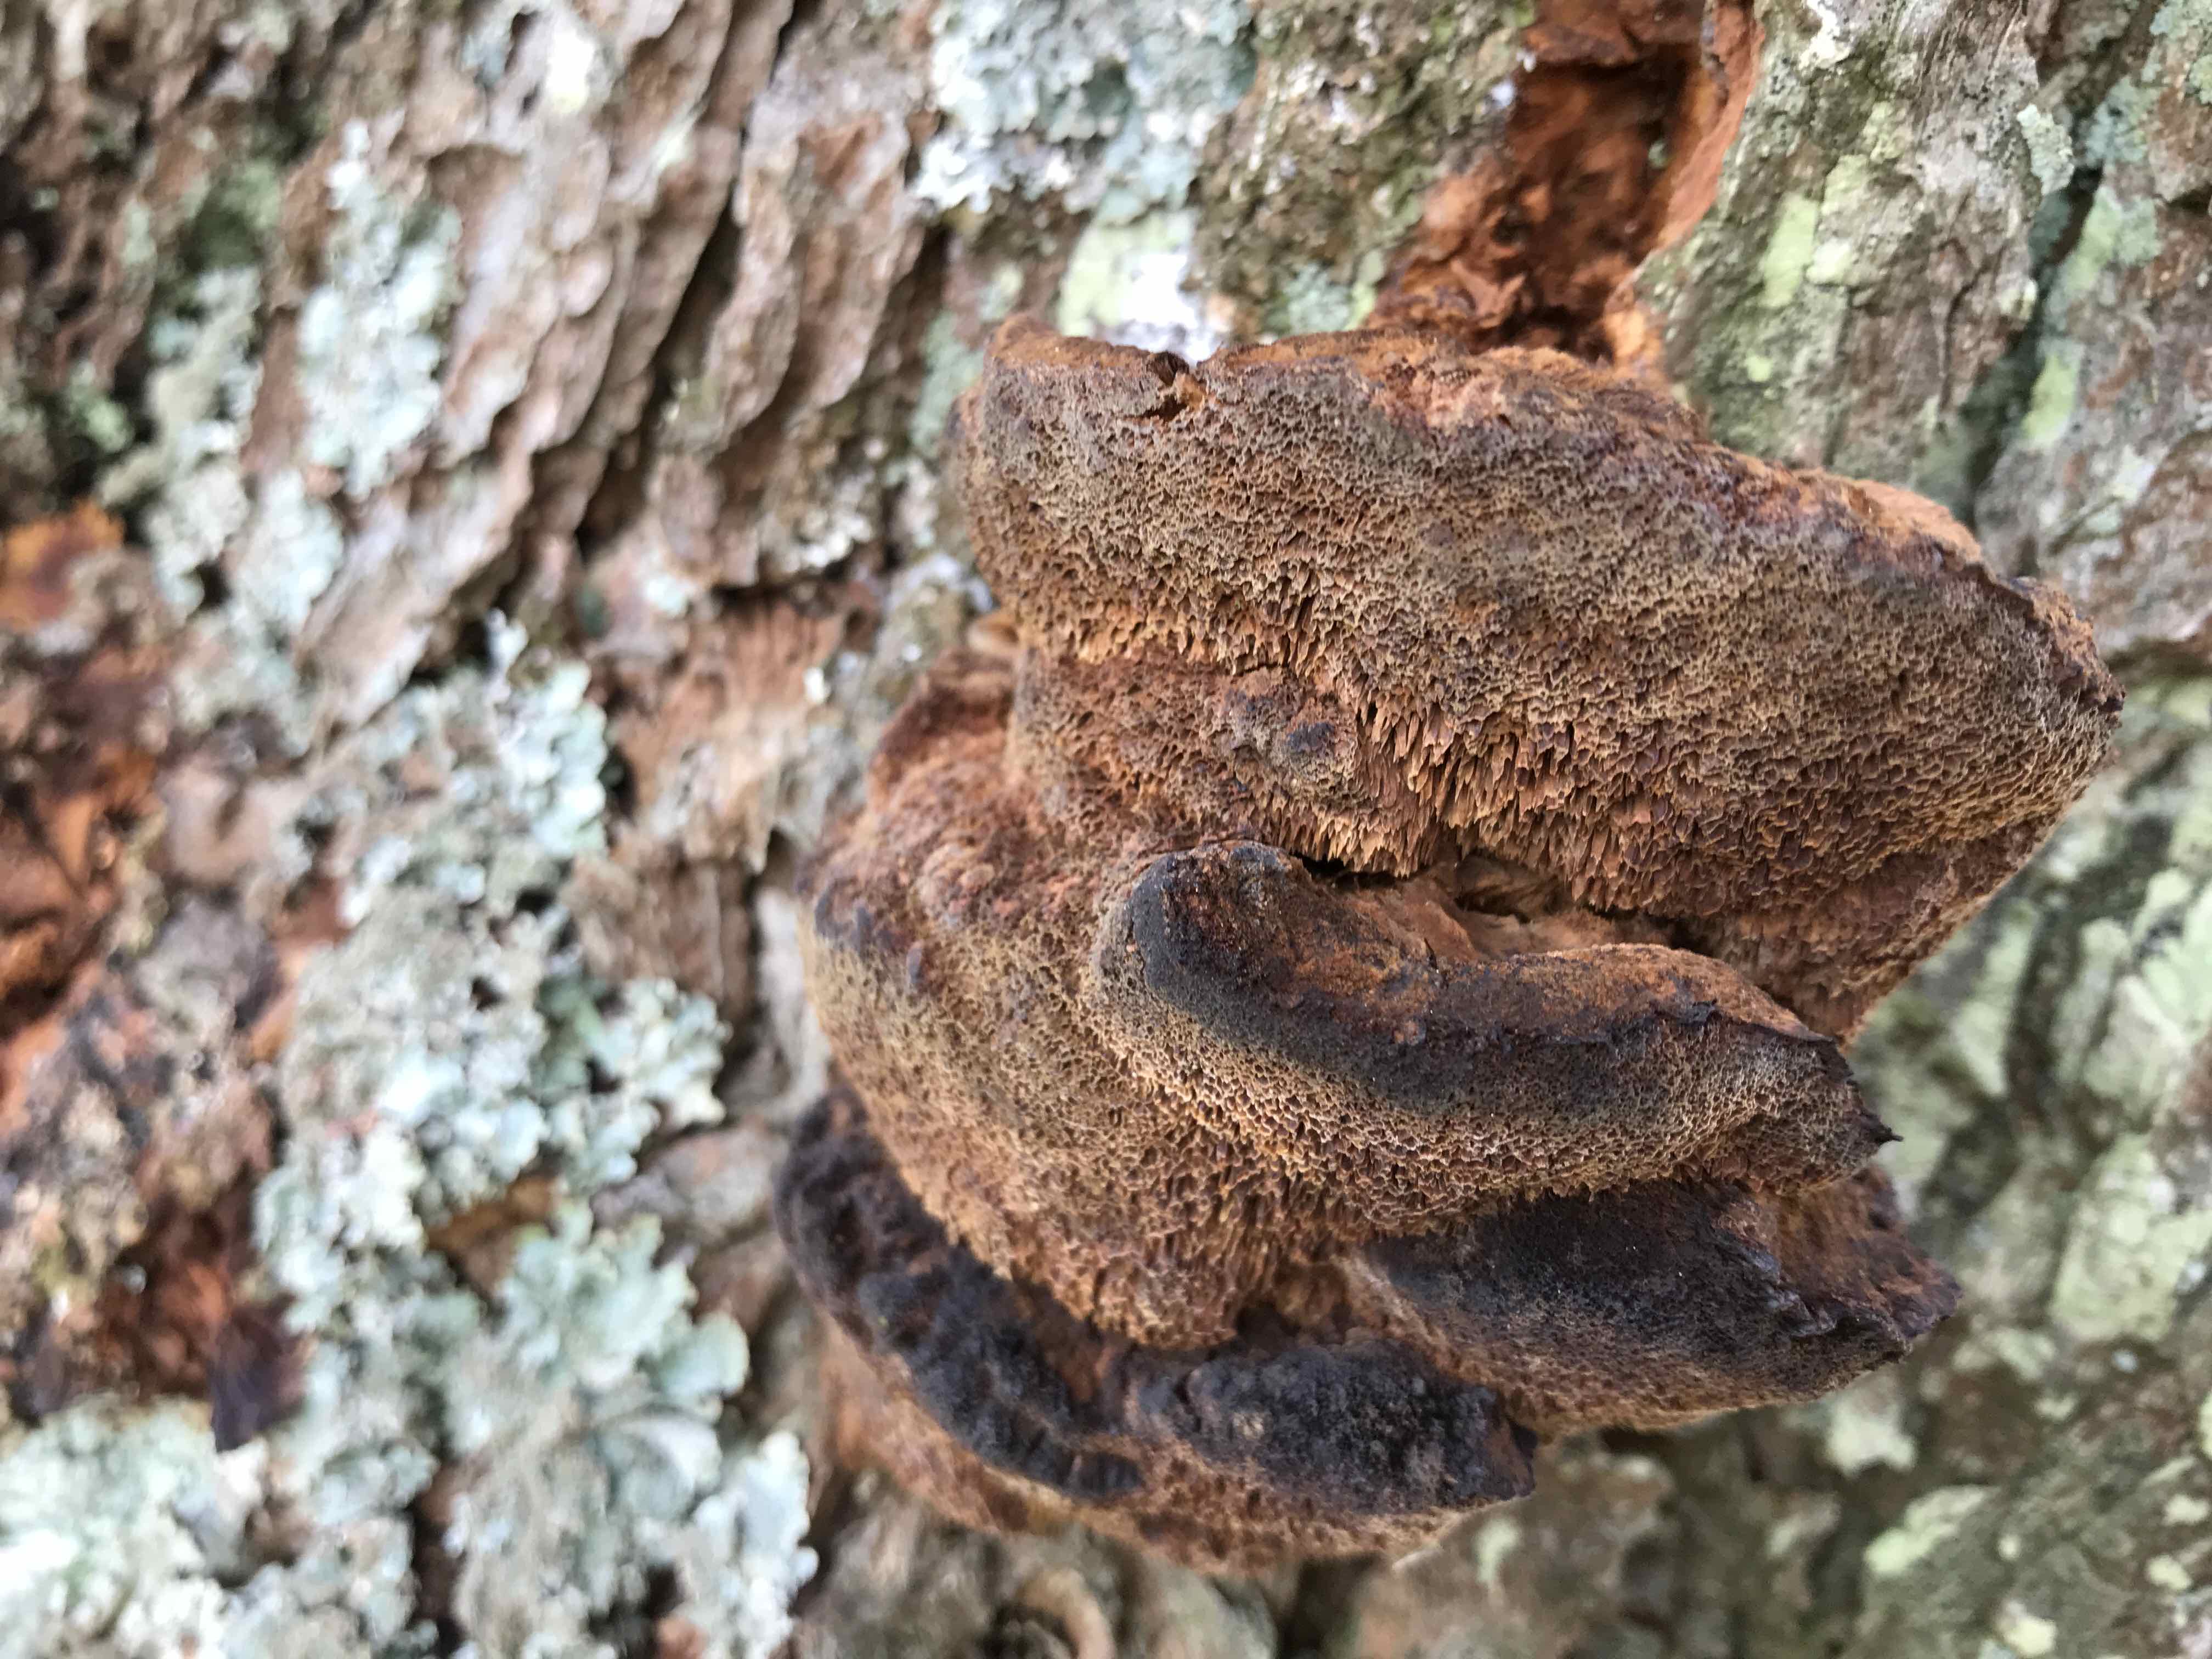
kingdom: Fungi
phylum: Basidiomycota
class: Agaricomycetes
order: Hymenochaetales
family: Hymenochaetaceae
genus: Xanthoporia
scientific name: Xanthoporia radiata
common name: elle-spejlporesvamp
